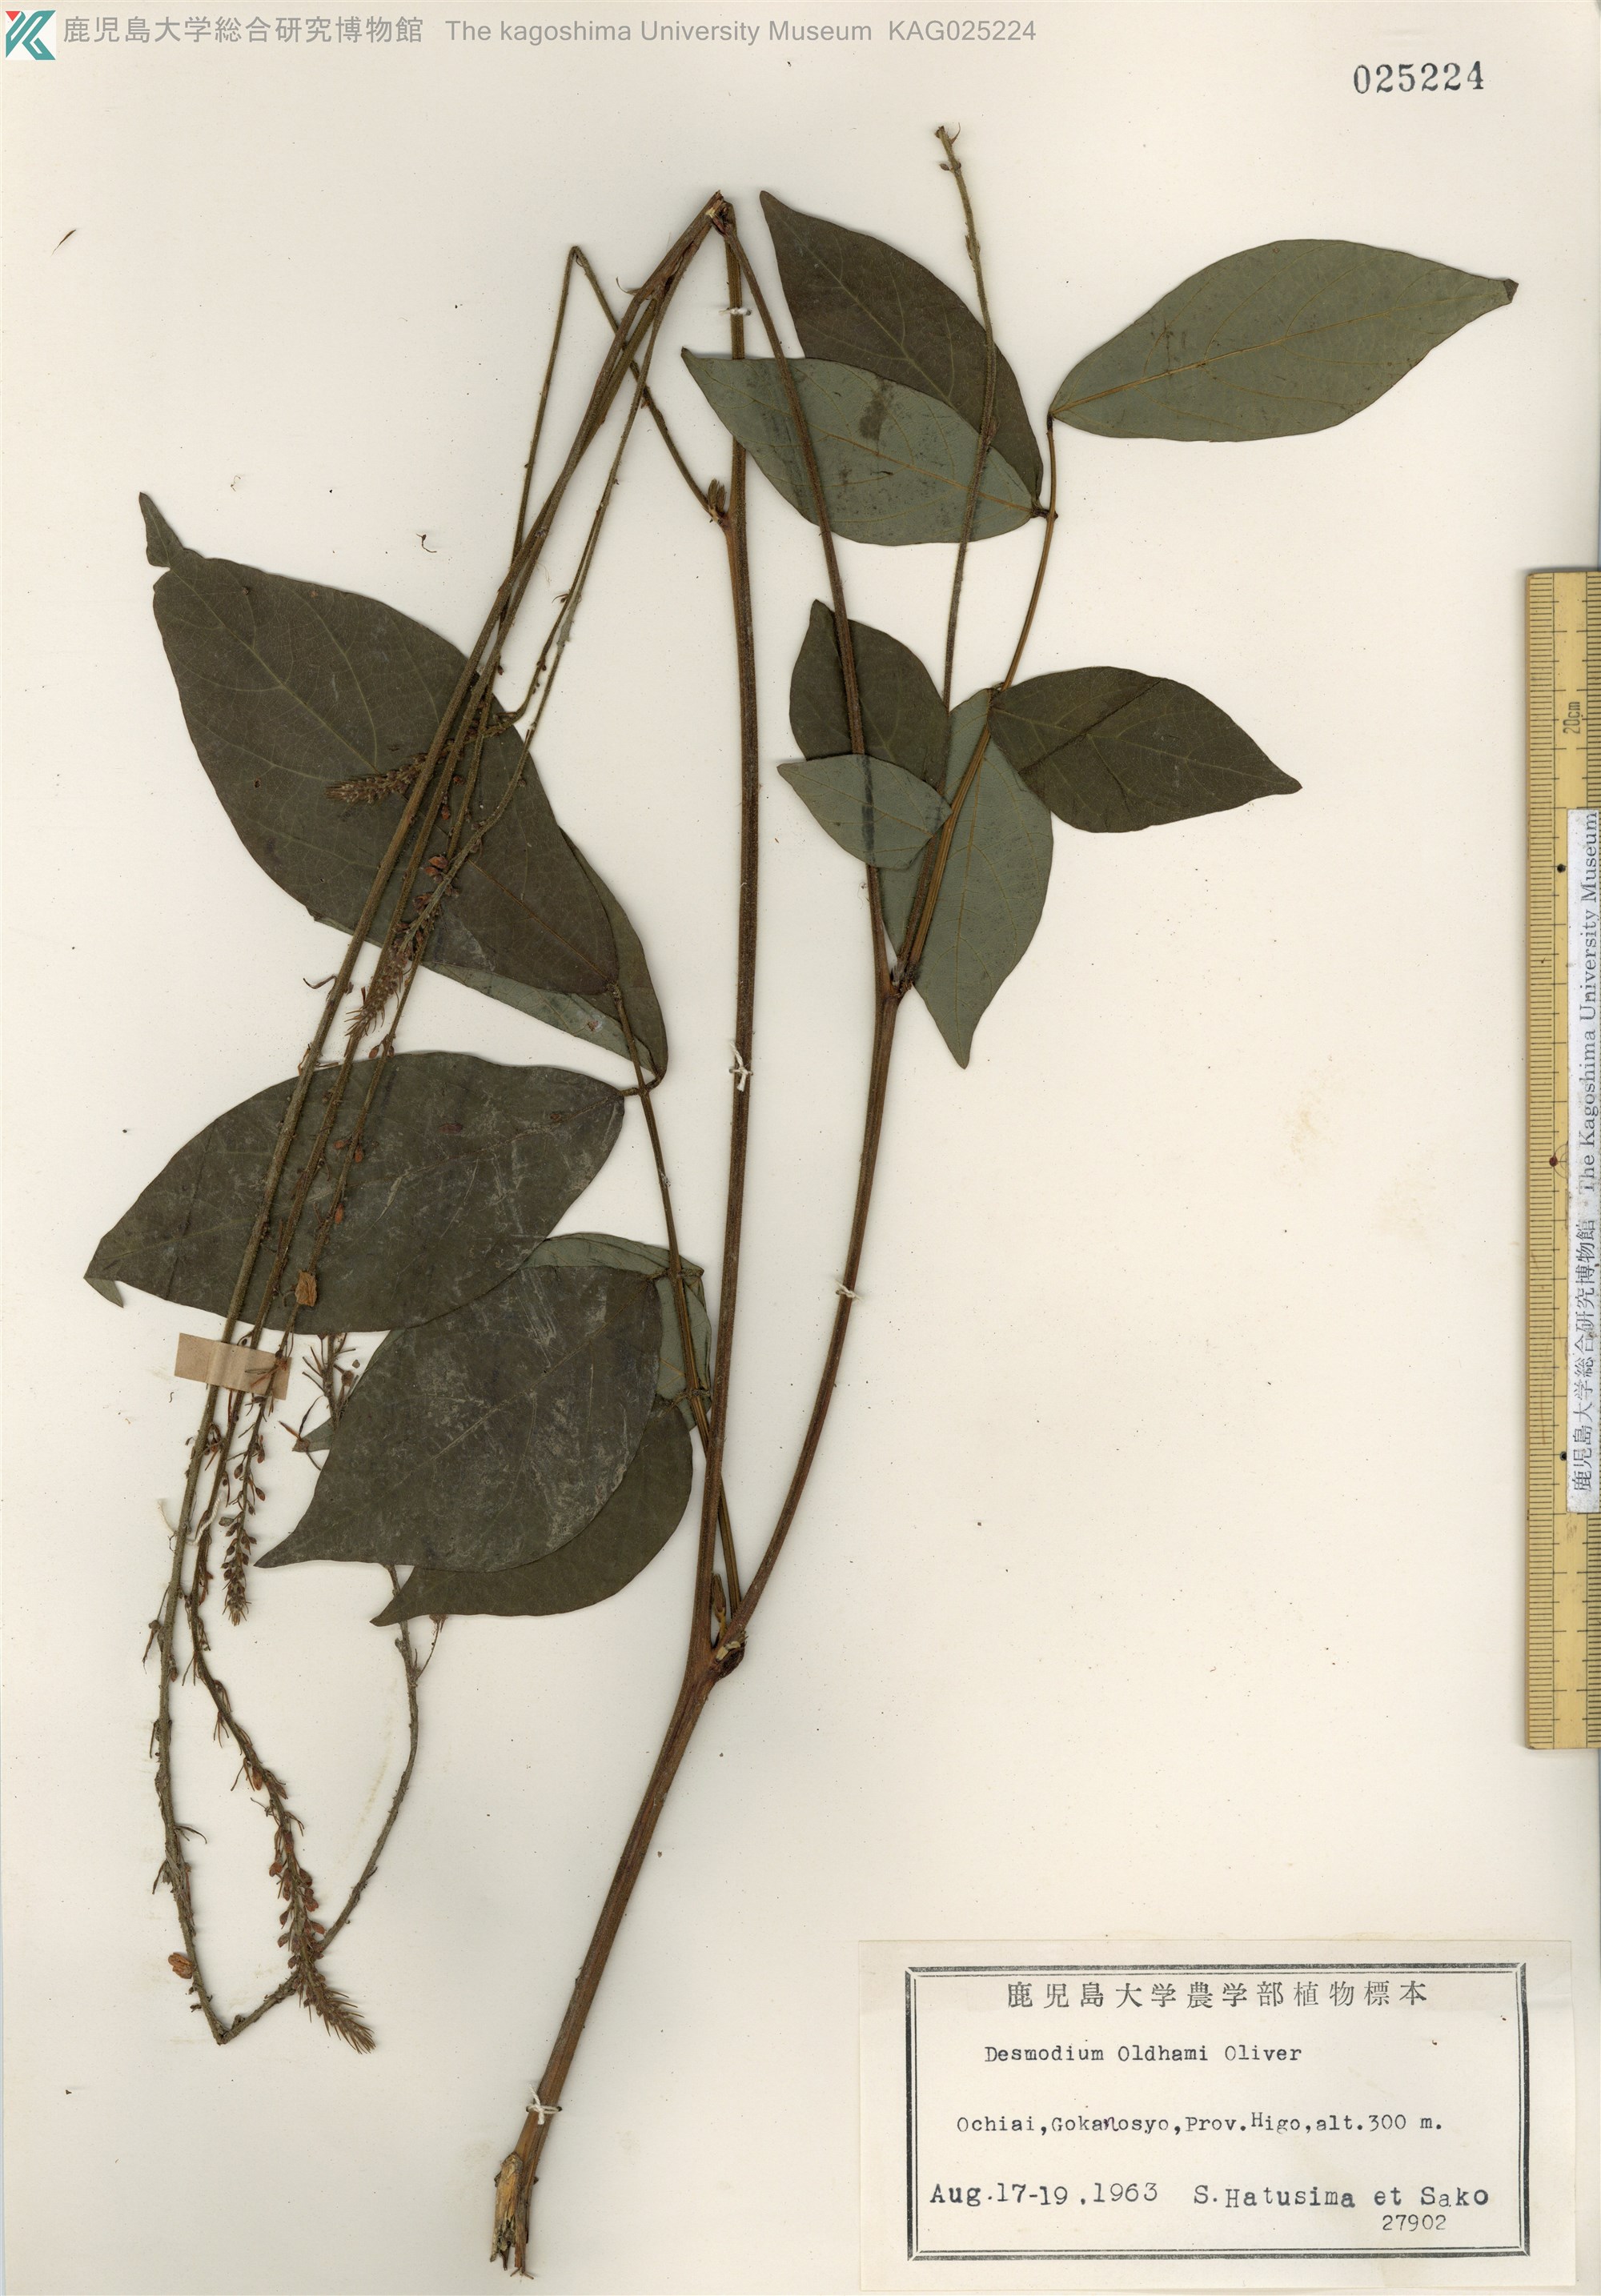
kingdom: Plantae
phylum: Tracheophyta
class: Magnoliopsida
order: Fabales
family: Fabaceae
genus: Hylodesmum
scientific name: Hylodesmum oldhamii
